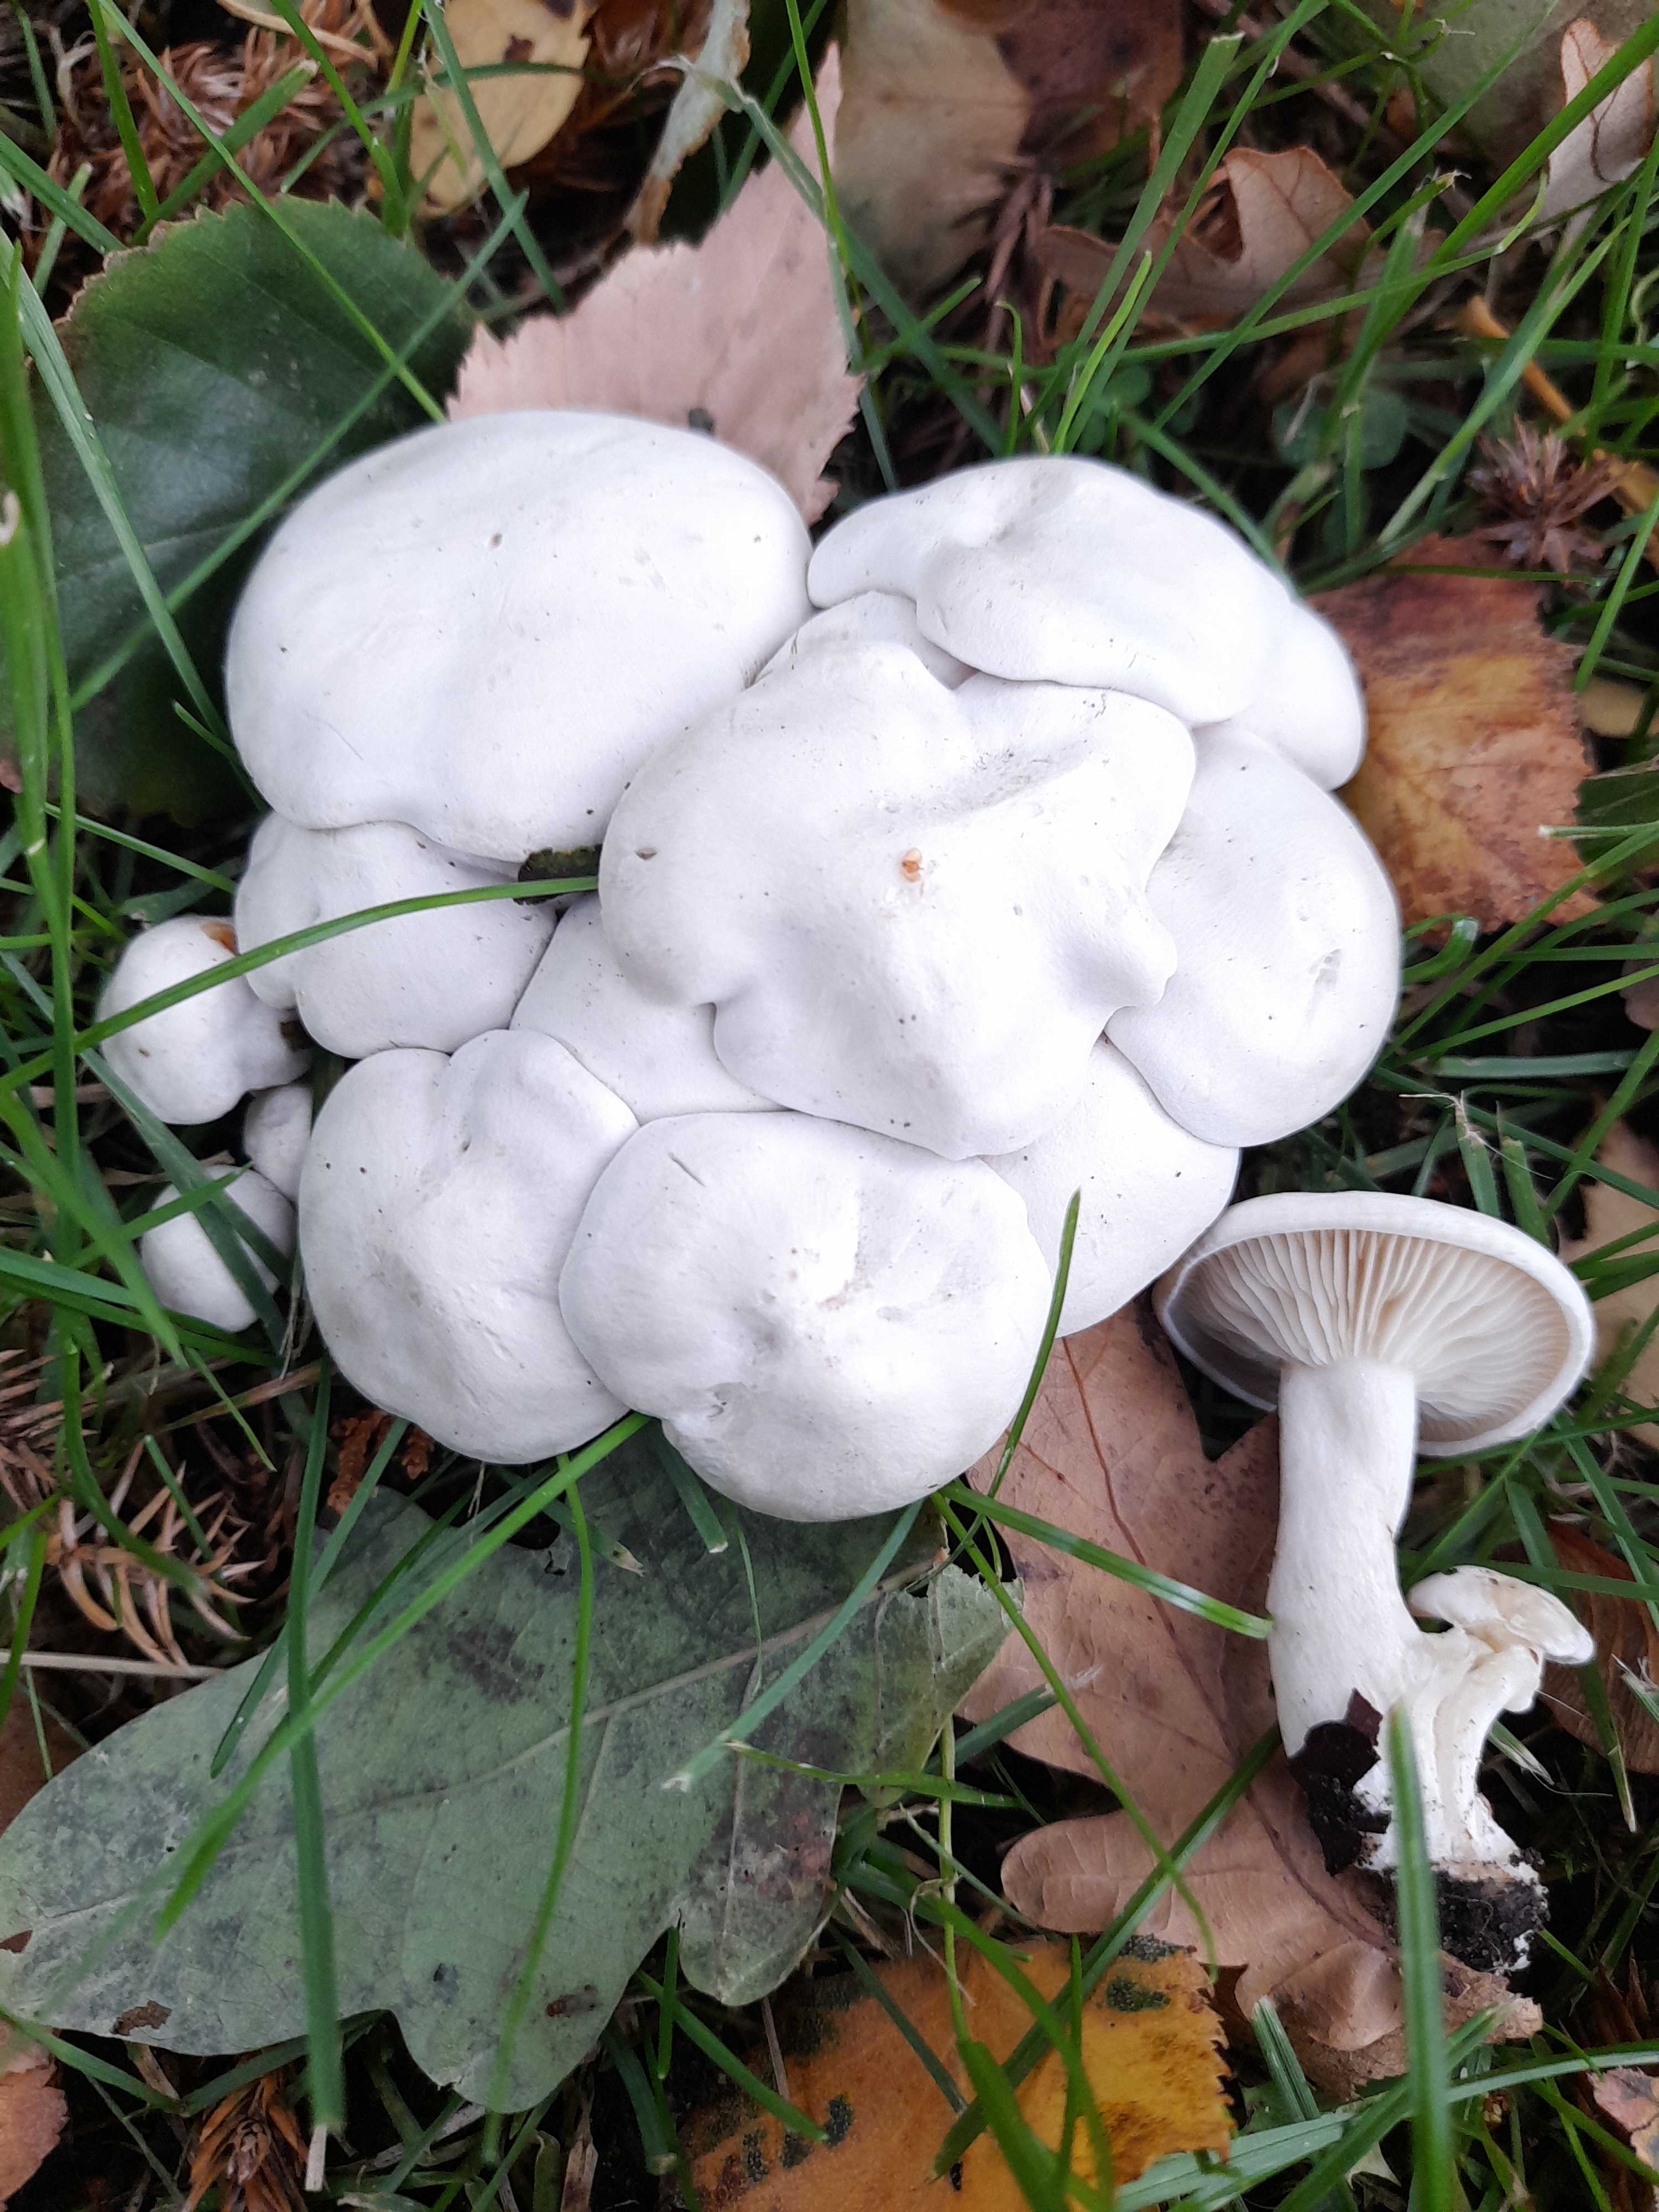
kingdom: Fungi
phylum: Basidiomycota
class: Agaricomycetes
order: Agaricales
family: Tricholomataceae
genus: Leucocybe
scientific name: Leucocybe connata
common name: knippe-tragthat
